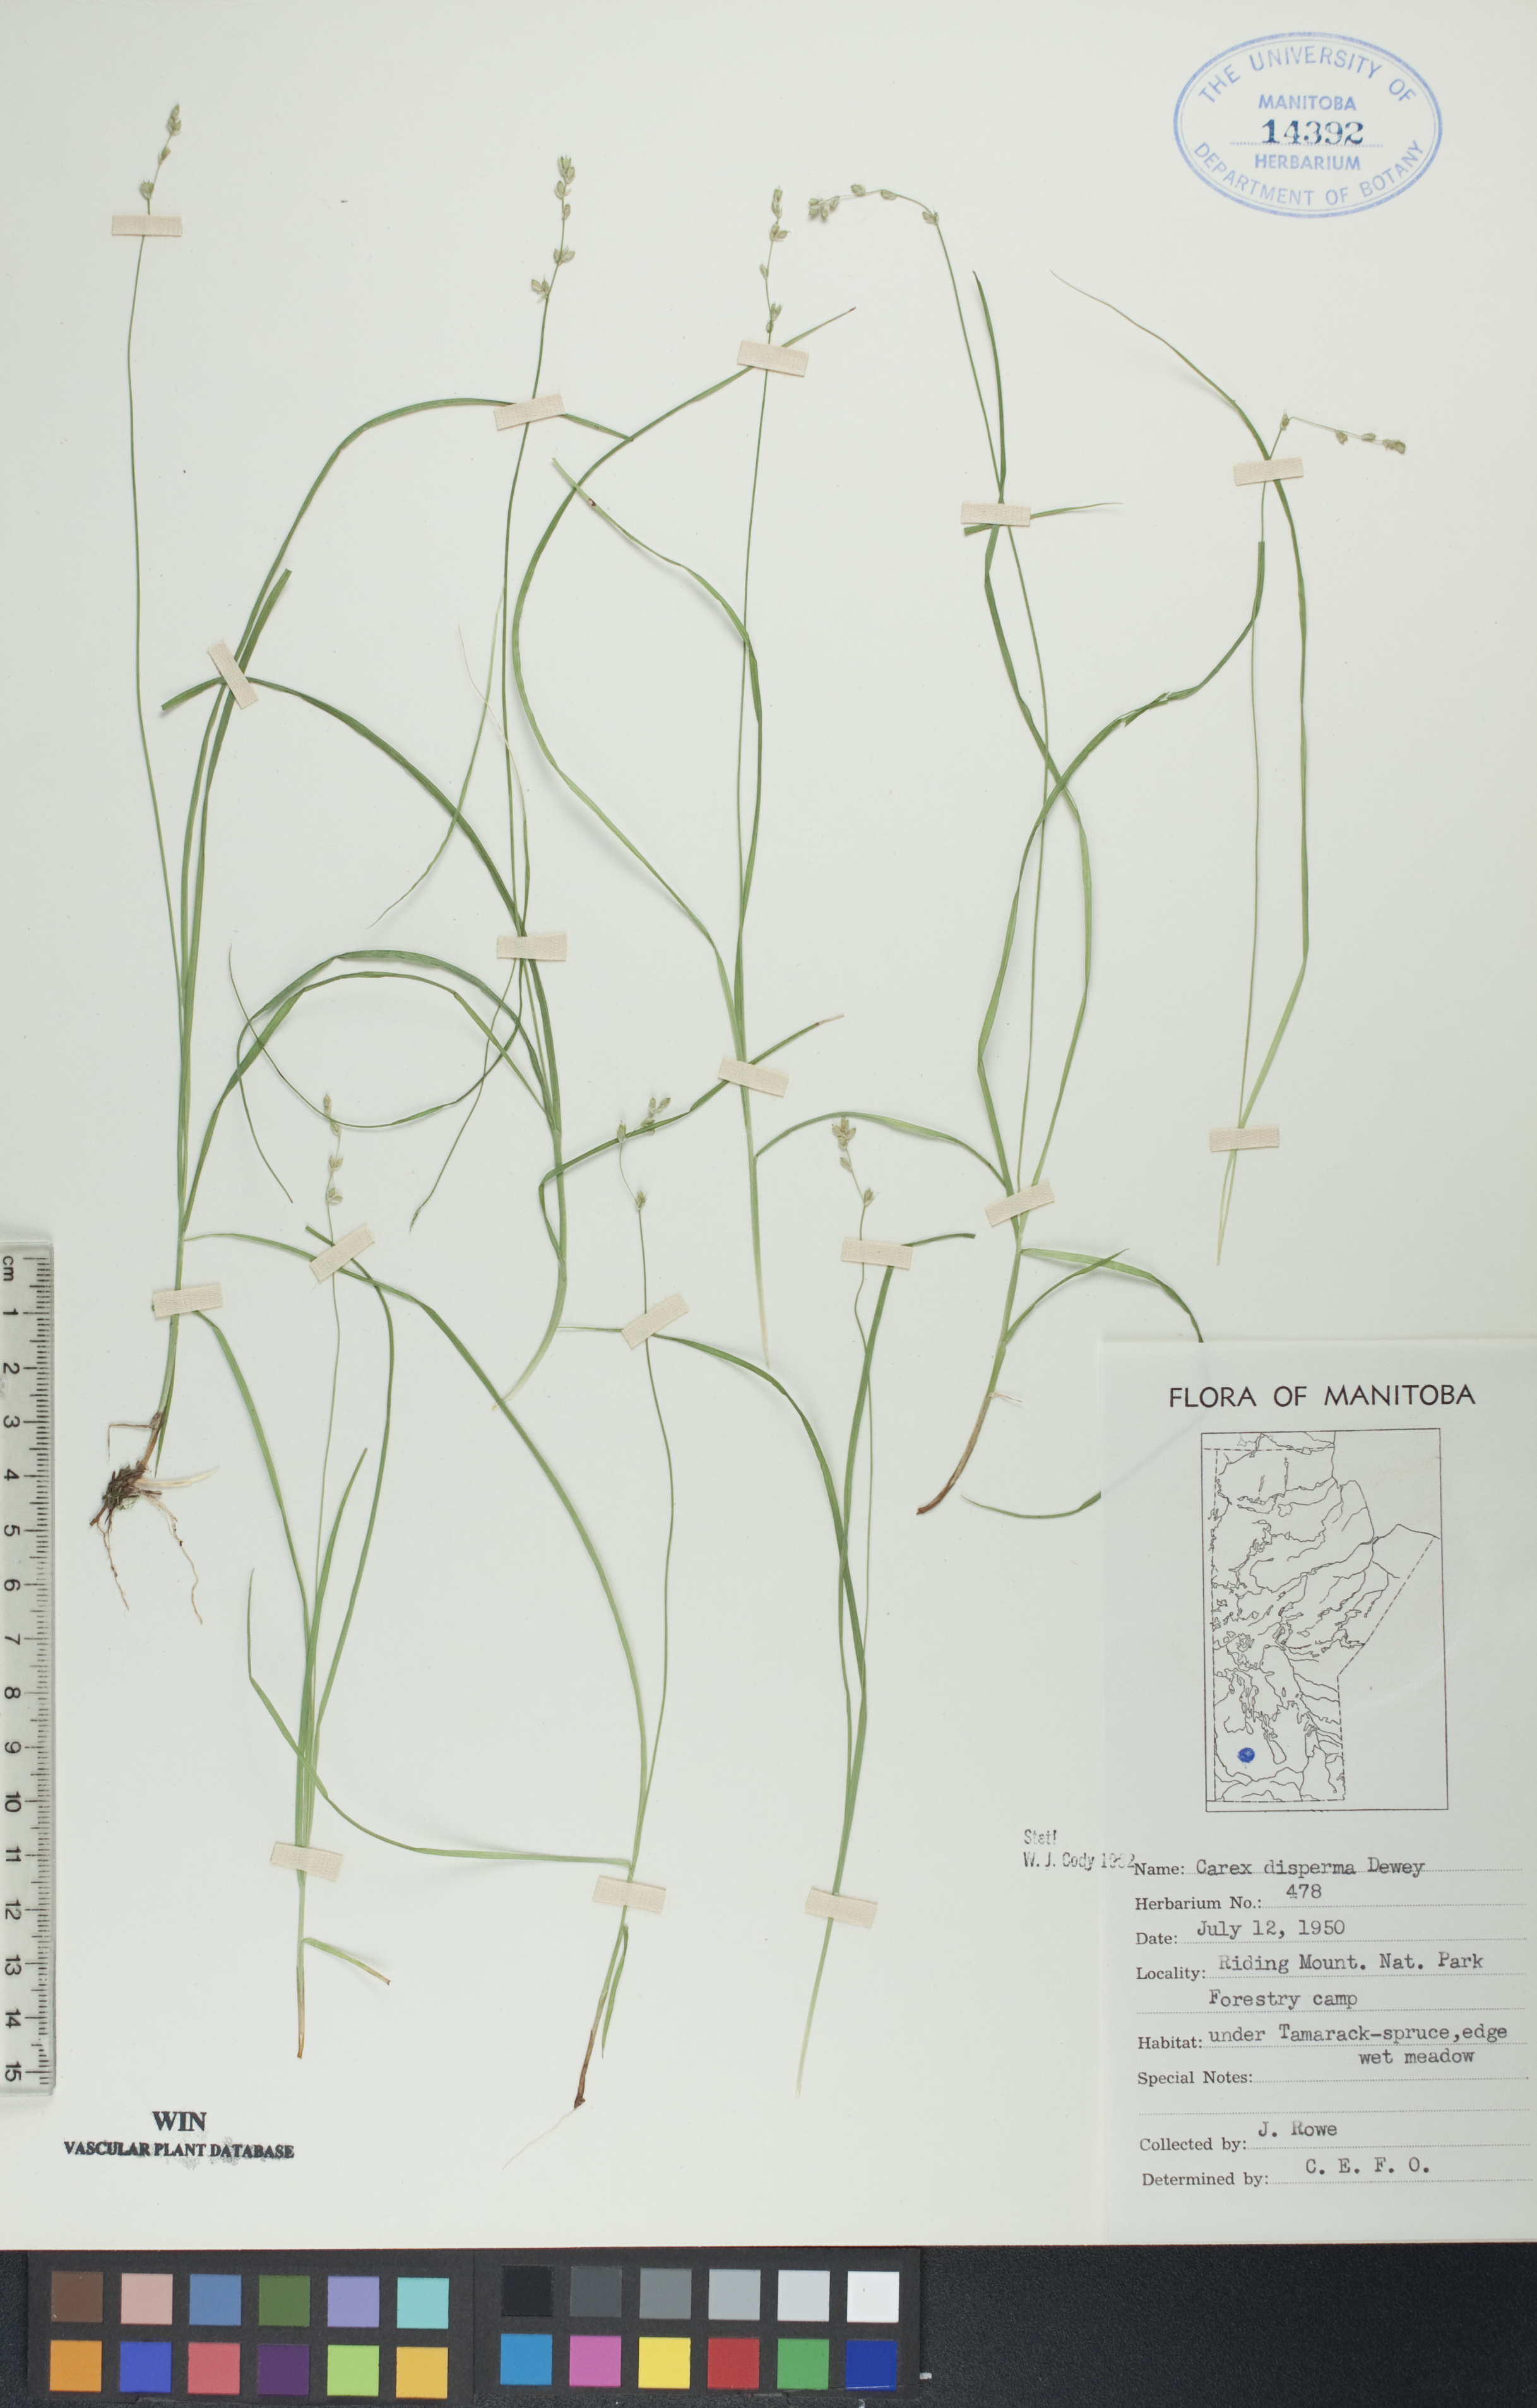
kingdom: Plantae
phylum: Tracheophyta
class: Liliopsida
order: Poales
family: Cyperaceae
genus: Carex
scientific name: Carex disperma
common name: Short-leaved sedge
